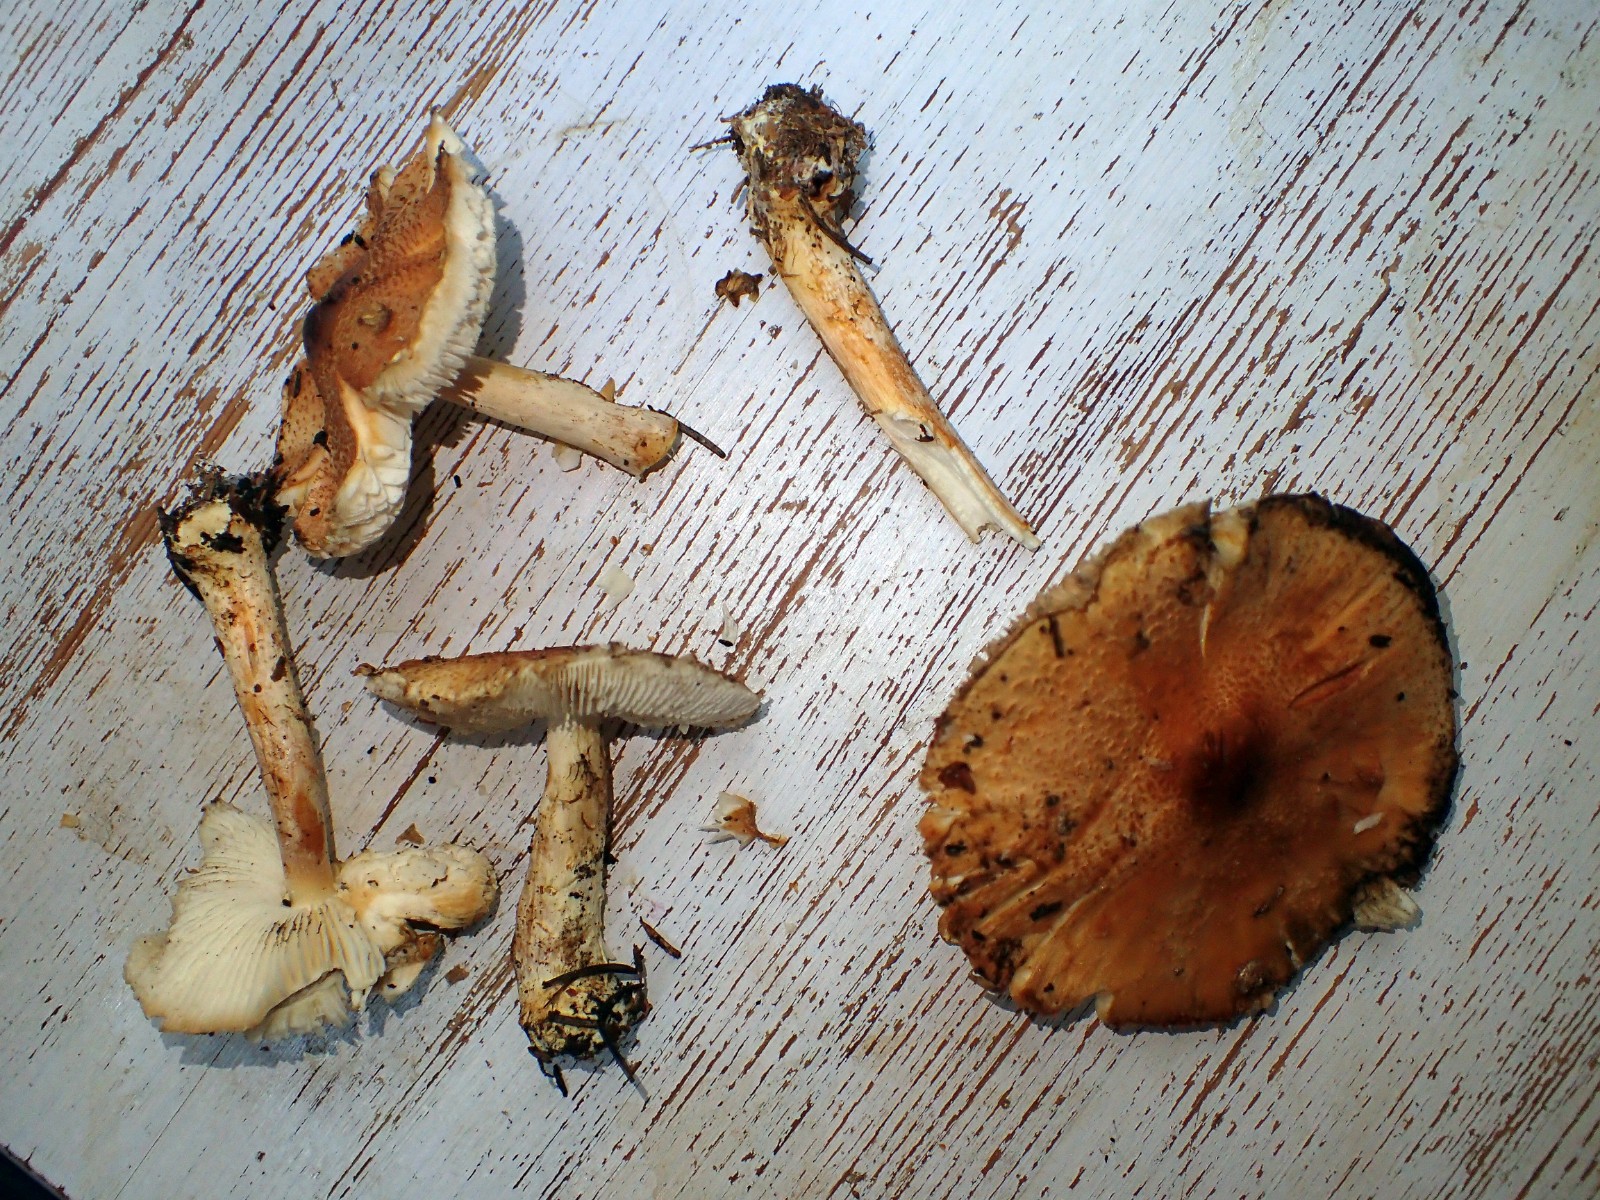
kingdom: Fungi
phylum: Basidiomycota
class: Agaricomycetes
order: Agaricales
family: Agaricaceae
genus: Lepiota
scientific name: Lepiota ochraceofulva
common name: sødtduftende parasolhat
